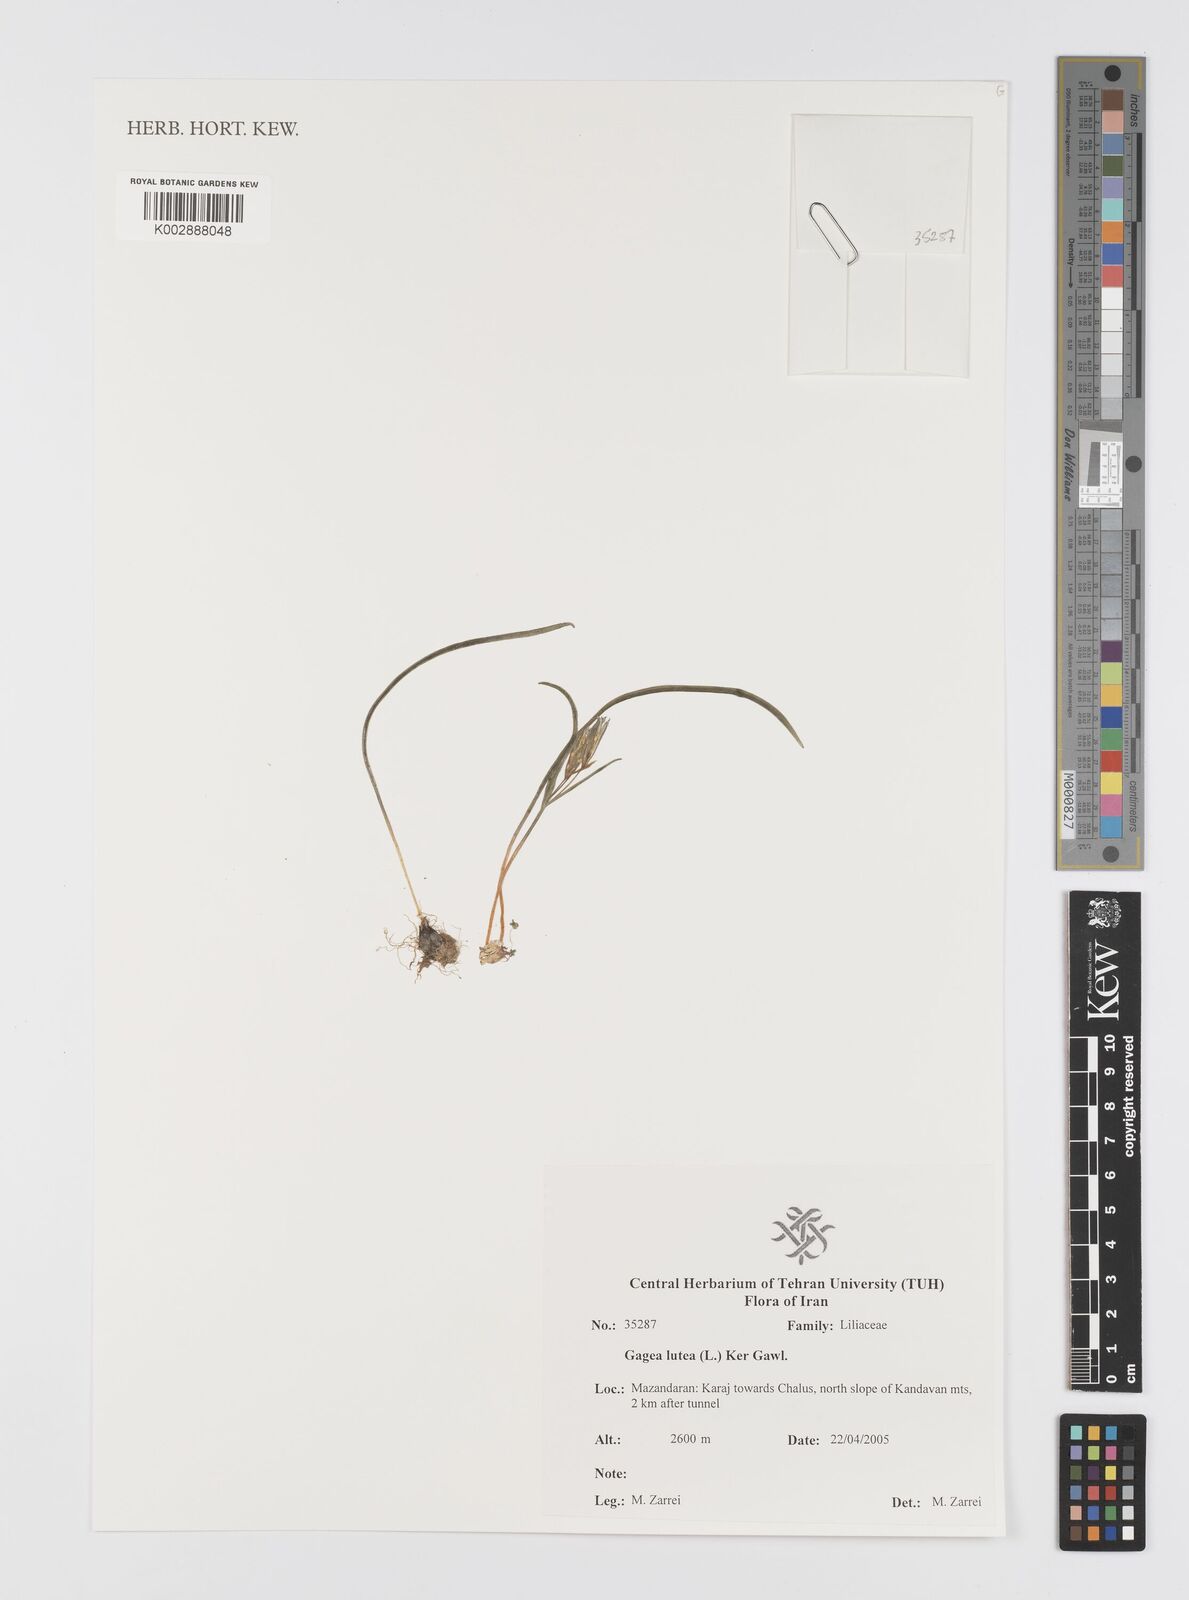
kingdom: Plantae
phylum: Tracheophyta
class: Liliopsida
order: Liliales
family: Liliaceae
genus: Gagea
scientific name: Gagea lutea
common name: Yellow star-of-bethlehem
